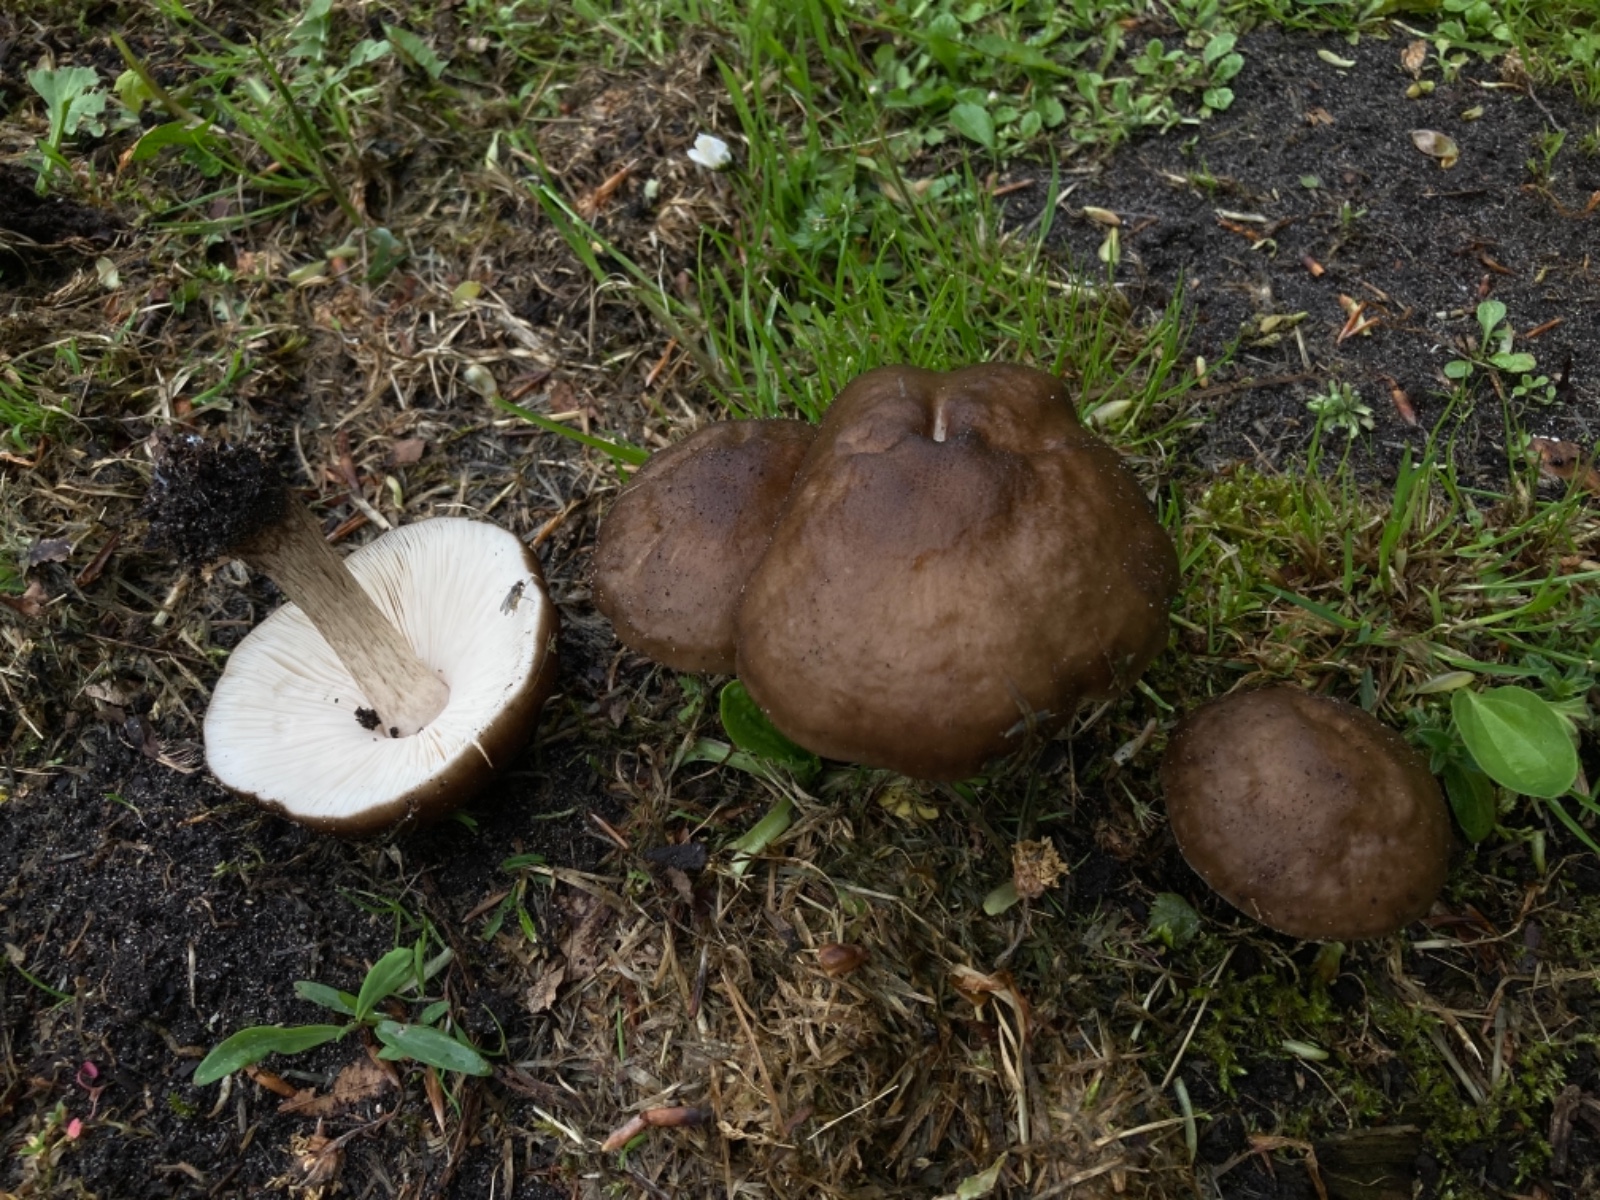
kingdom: Fungi
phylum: Basidiomycota
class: Agaricomycetes
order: Agaricales
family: Pluteaceae
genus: Pluteus
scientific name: Pluteus cervinus
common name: sodfarvet skærmhat
